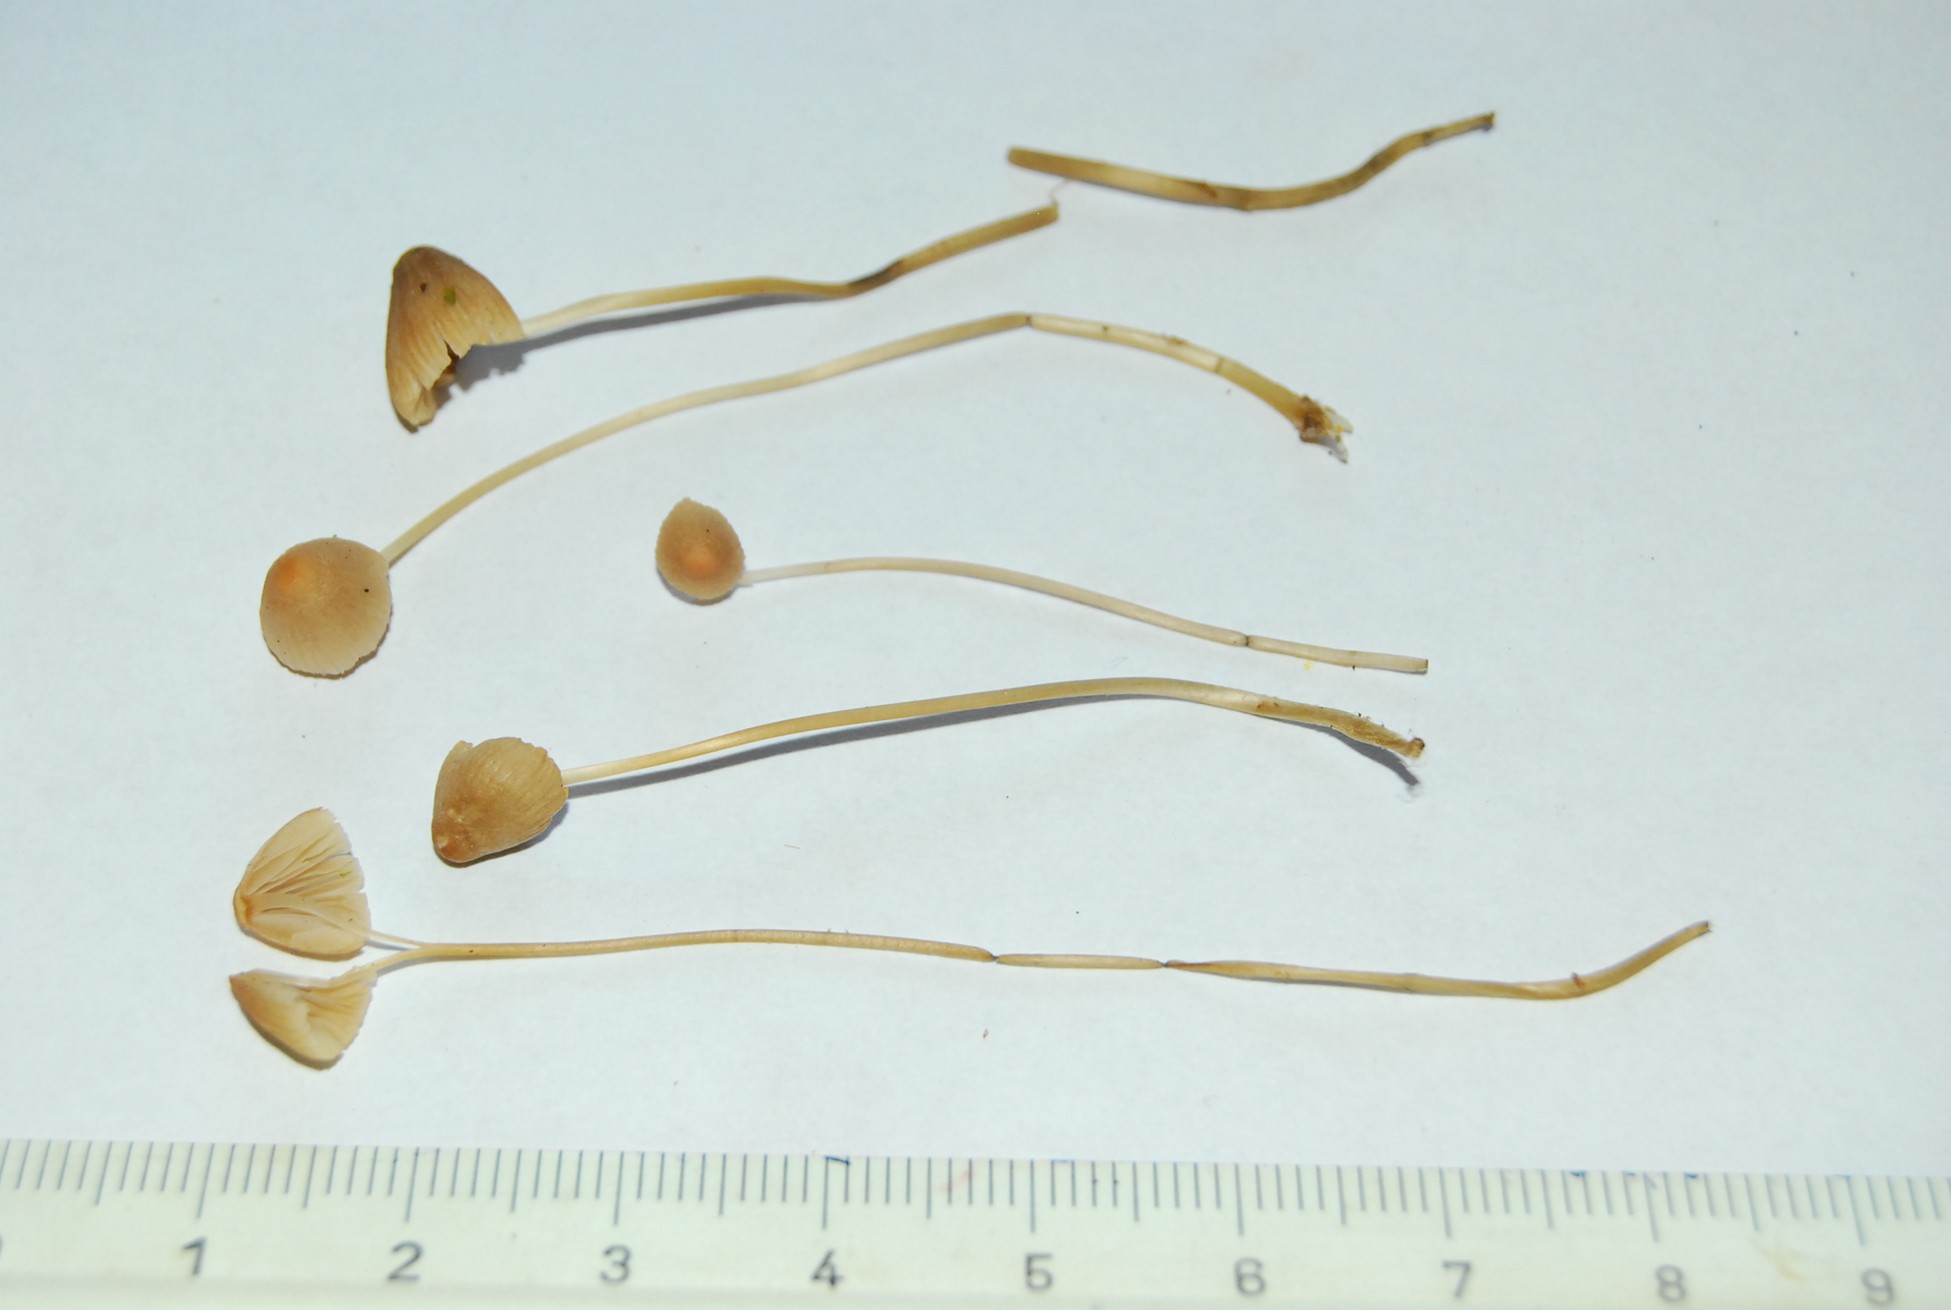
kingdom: Fungi
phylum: Basidiomycota
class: Agaricomycetes
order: Agaricales
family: Mycenaceae
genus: Mycena
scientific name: Mycena metata
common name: rødlig huesvamp
